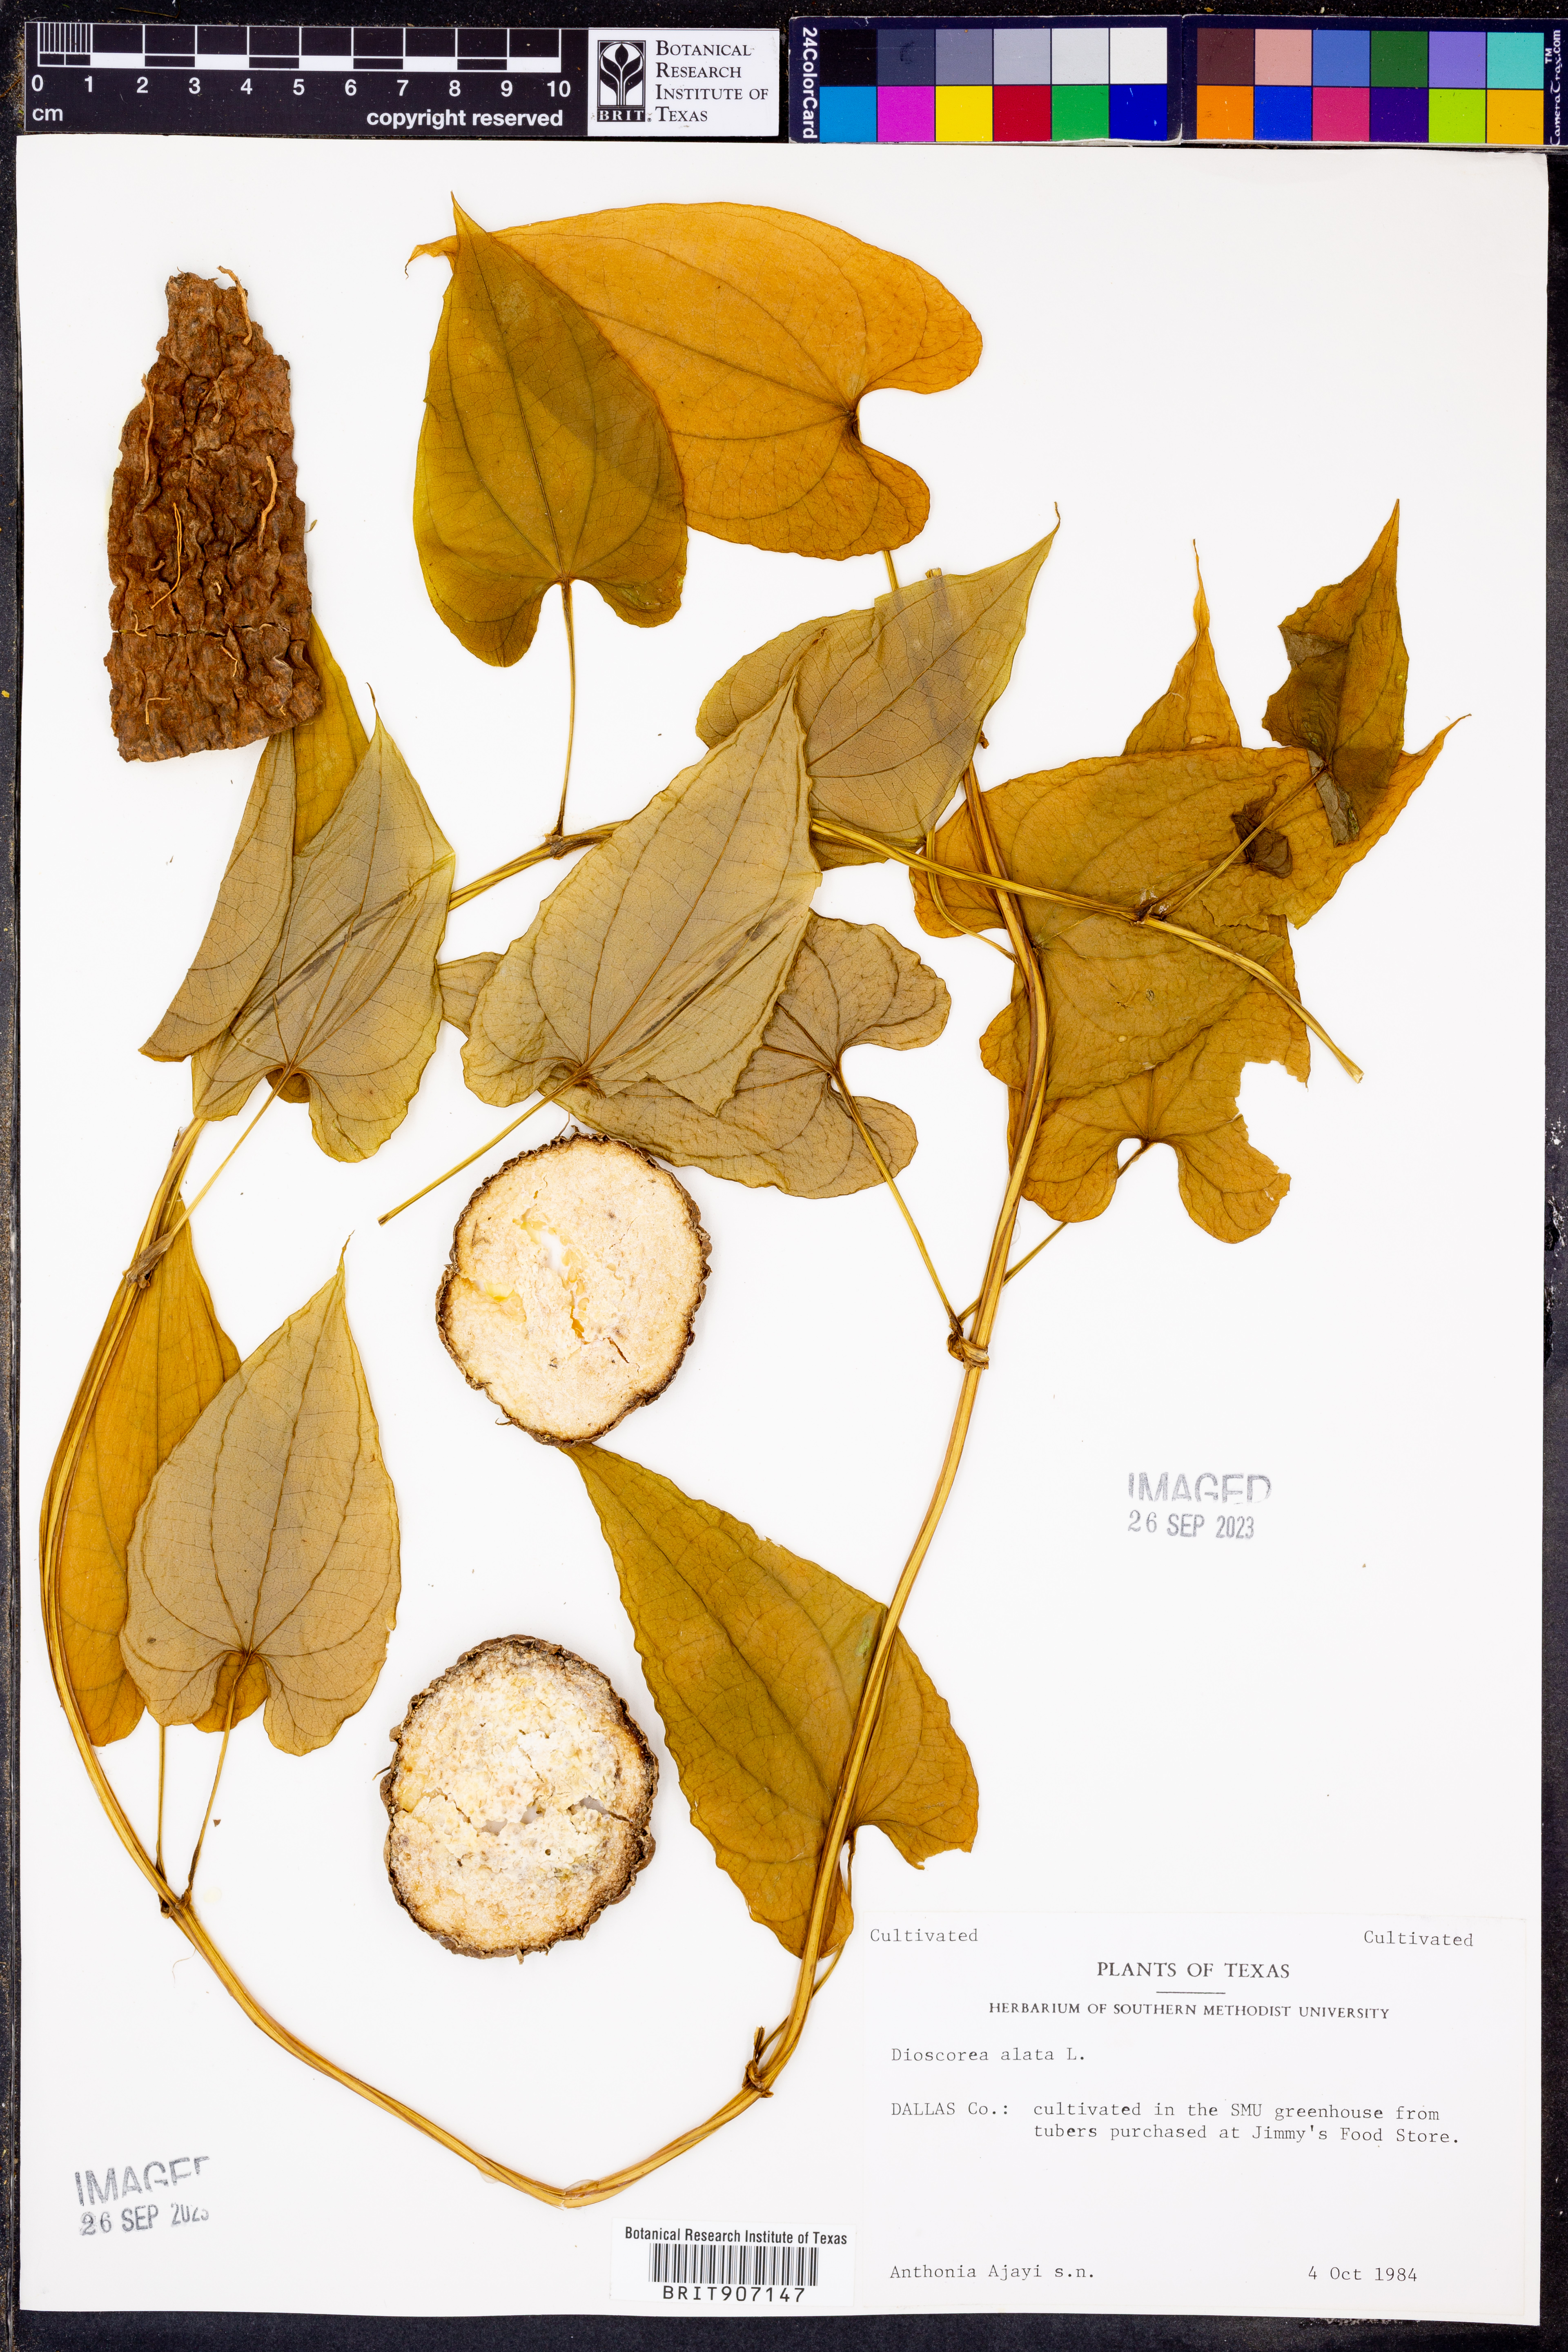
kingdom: Plantae
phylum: Tracheophyta
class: Liliopsida
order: Dioscoreales
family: Dioscoreaceae
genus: Dioscorea
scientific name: Dioscorea alata
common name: Water yam
